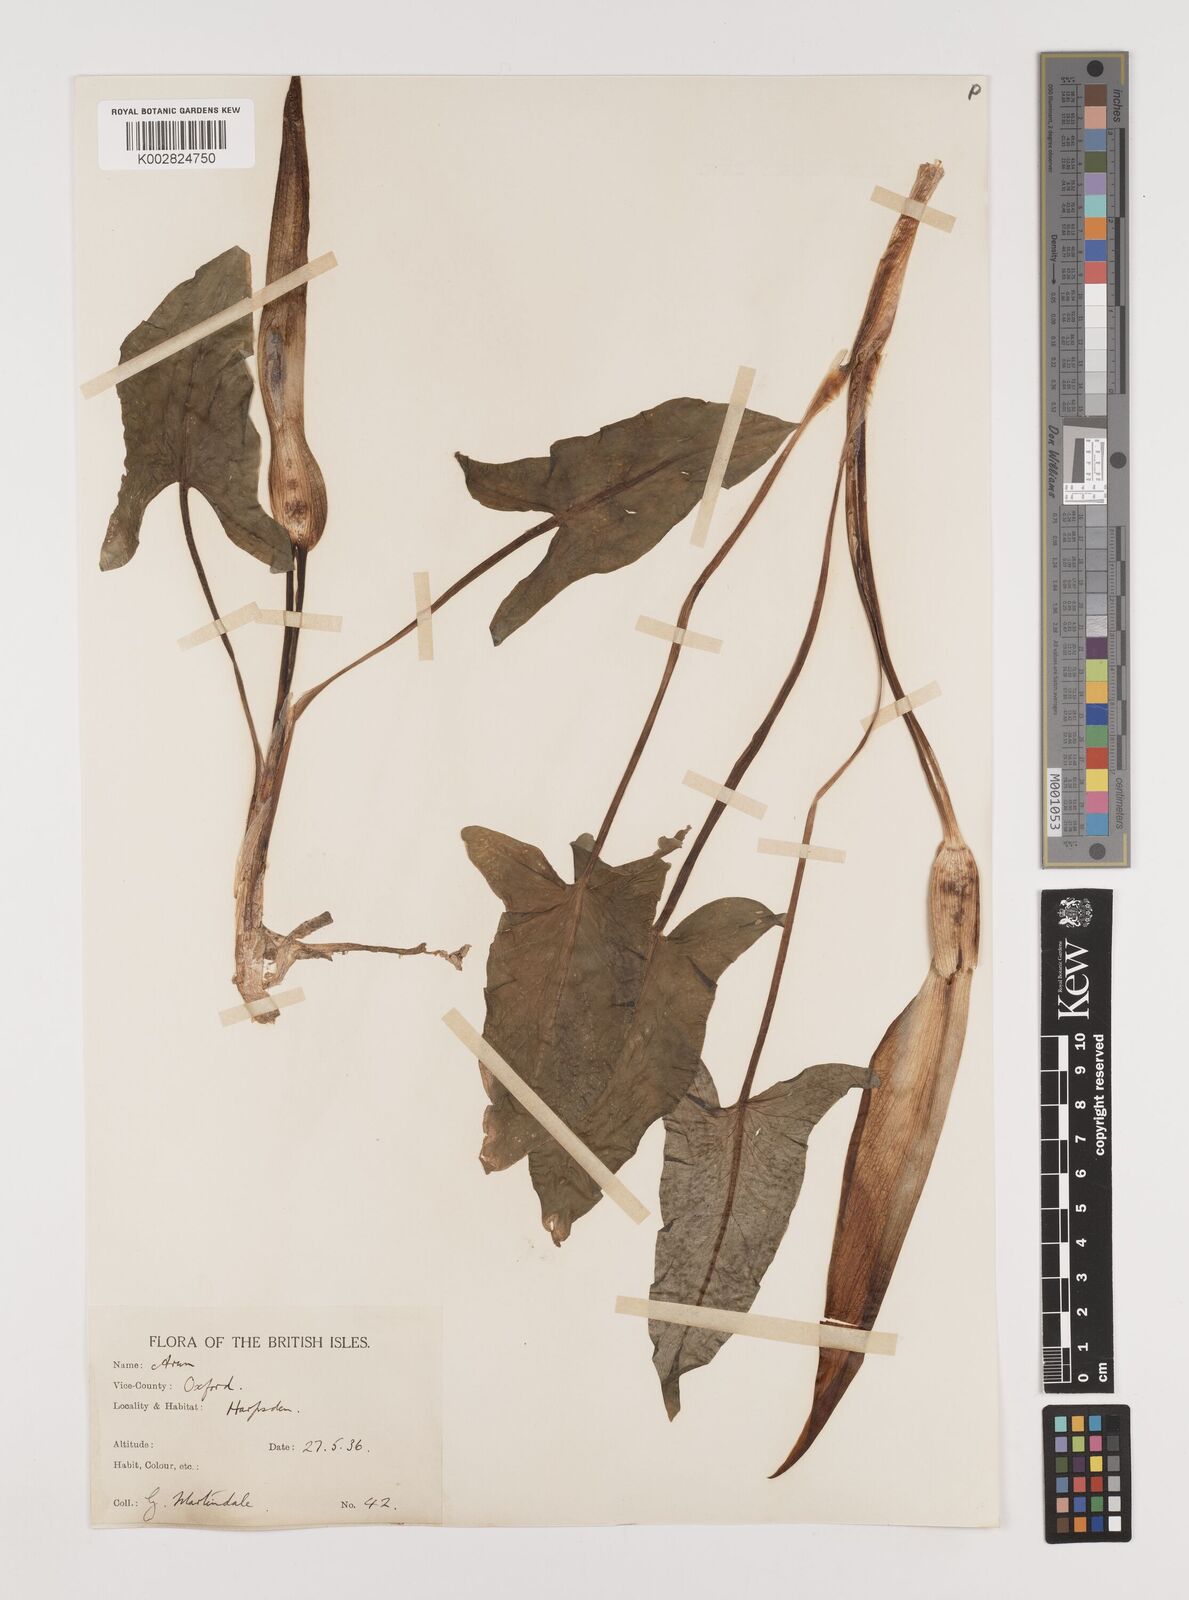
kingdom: Plantae
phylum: Tracheophyta
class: Liliopsida
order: Alismatales
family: Araceae
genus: Arum
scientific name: Arum maculatum
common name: Lords-and-ladies
